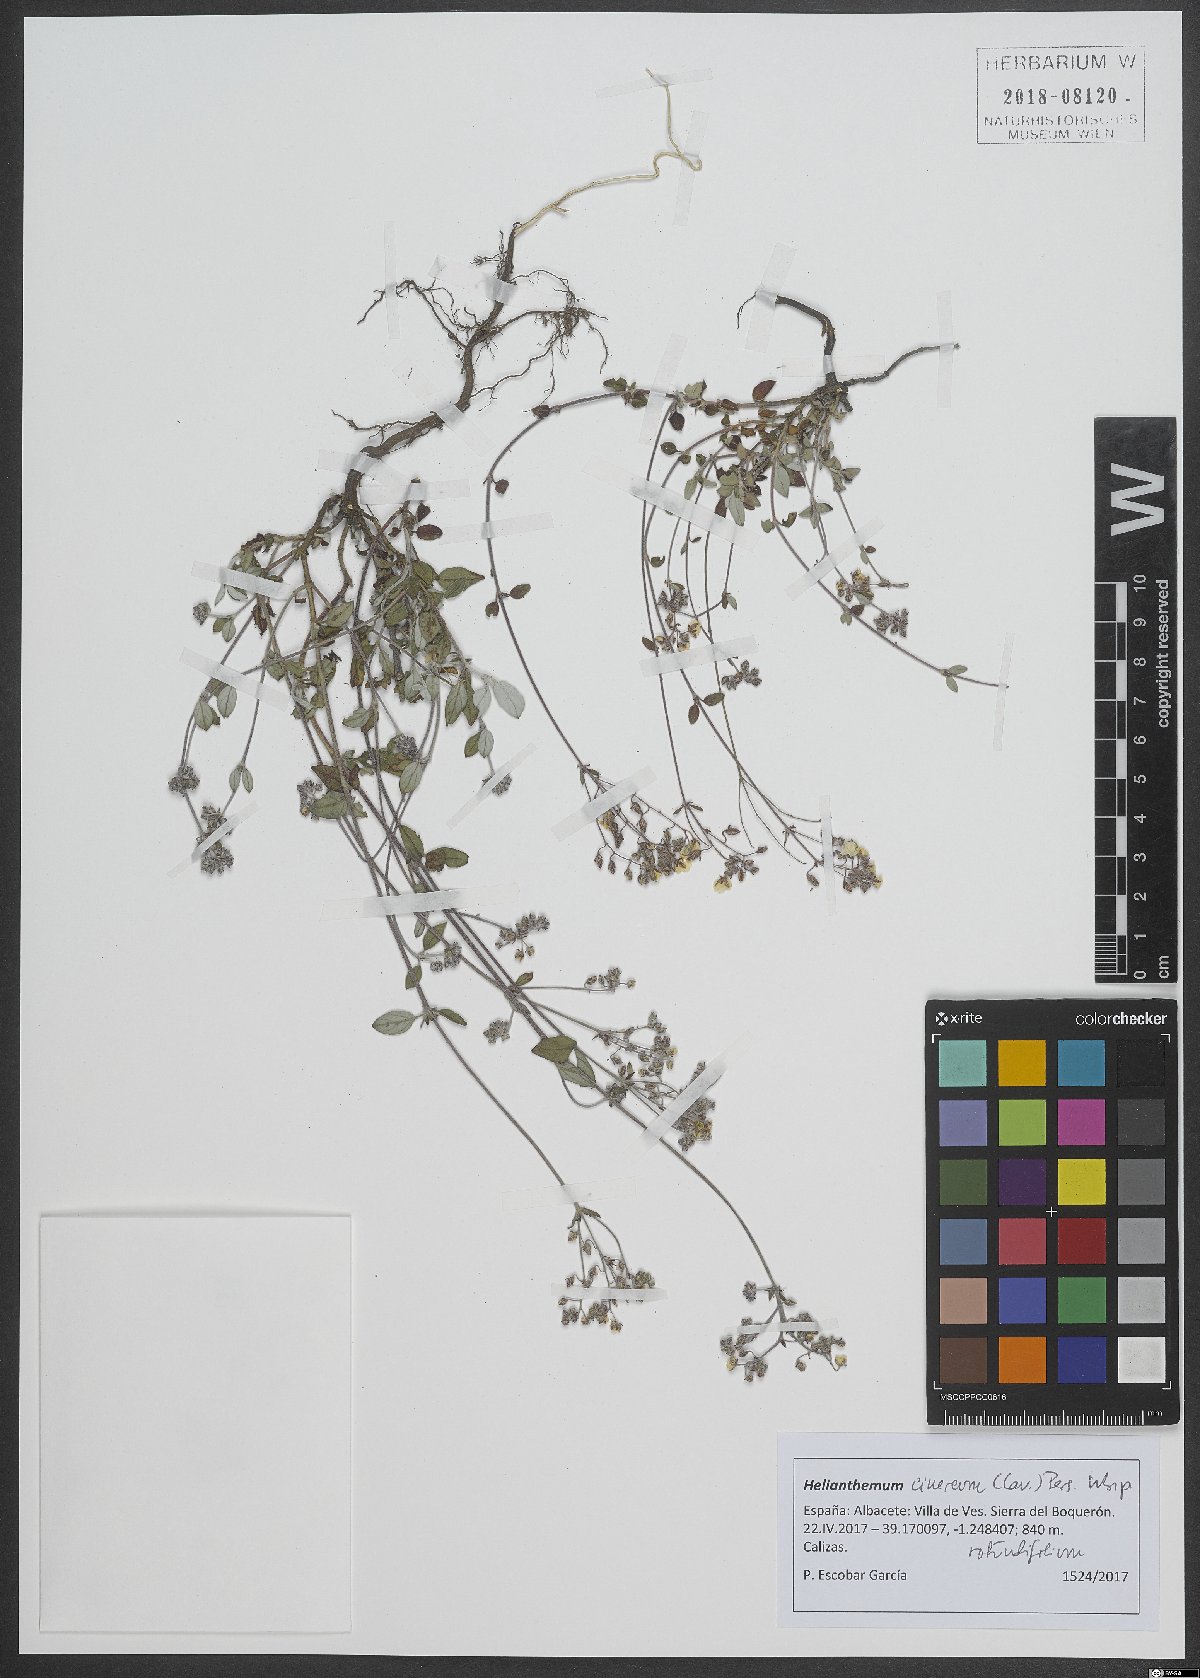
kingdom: Plantae
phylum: Tracheophyta
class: Magnoliopsida
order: Malvales
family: Cistaceae
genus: Helianthemum
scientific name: Helianthemum cinereum
